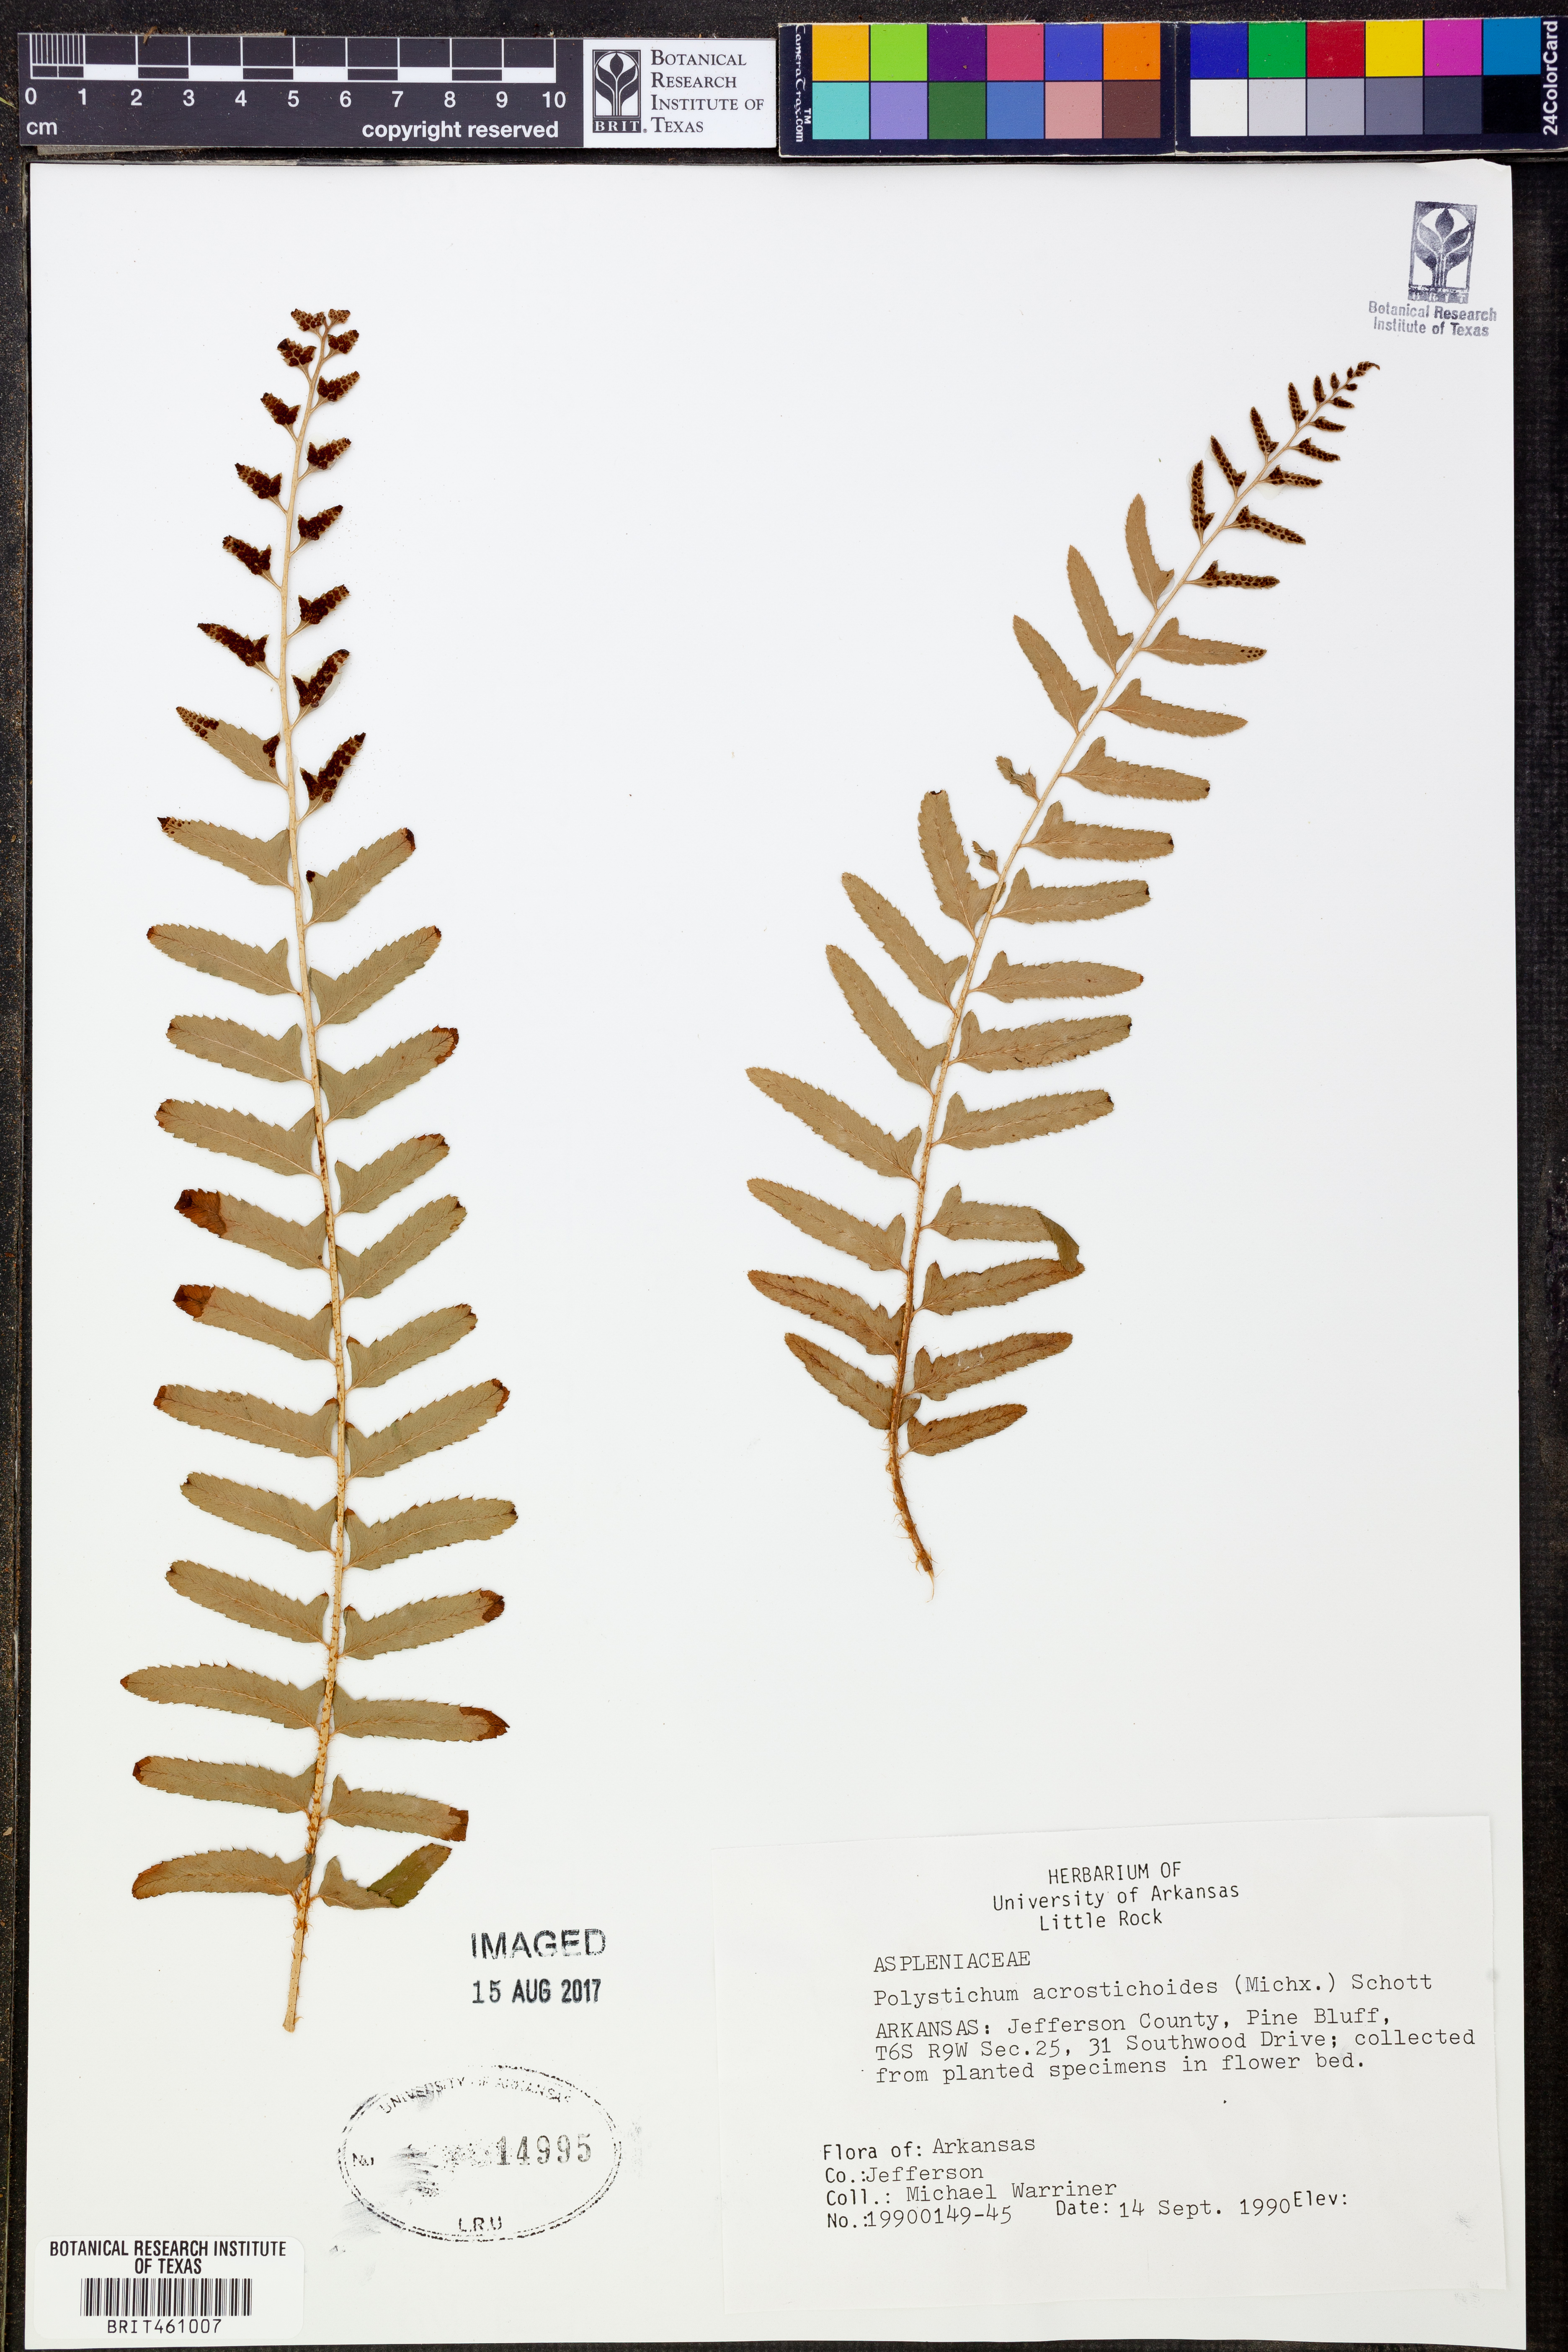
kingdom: Plantae
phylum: Tracheophyta
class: Polypodiopsida
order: Polypodiales
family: Dryopteridaceae
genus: Polystichum
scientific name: Polystichum acrostichoides
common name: Christmas fern
